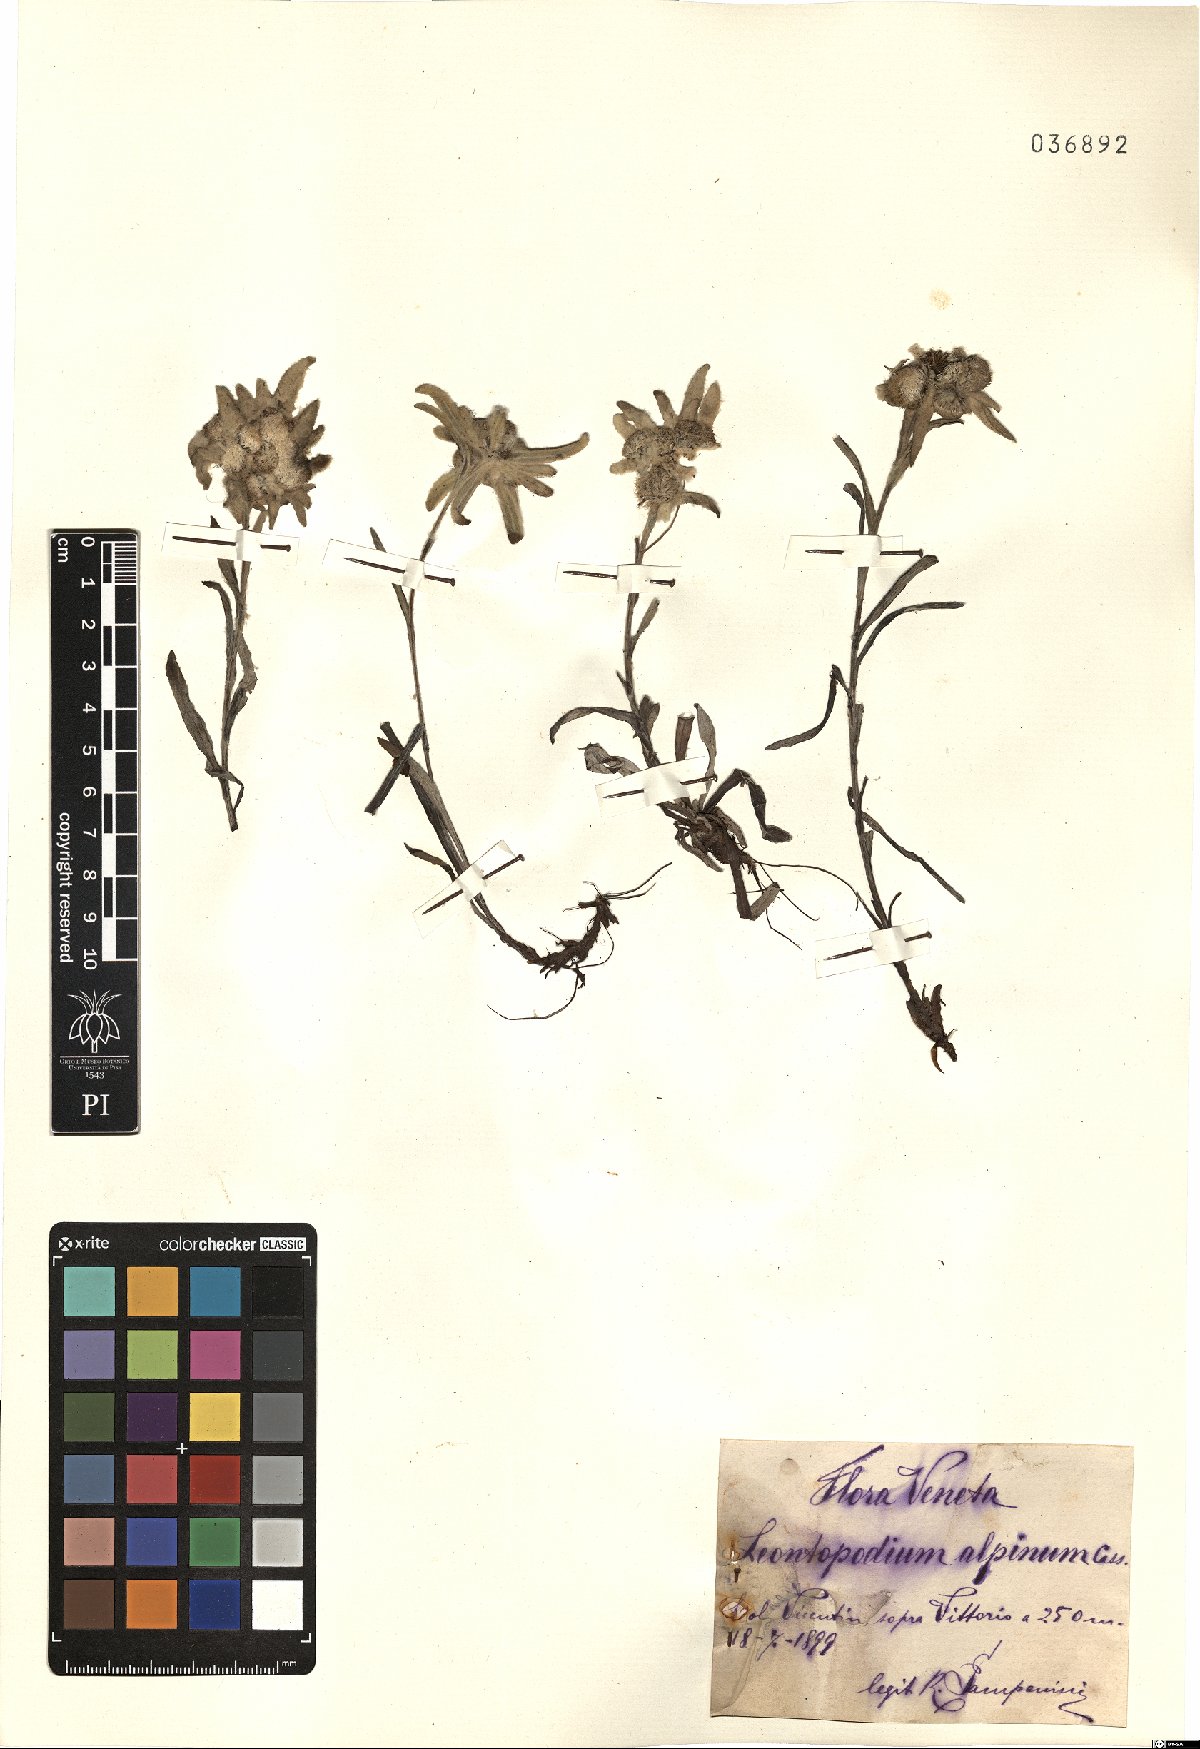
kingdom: Plantae
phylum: Tracheophyta
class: Magnoliopsida
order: Asterales
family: Asteraceae
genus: Leontopodium
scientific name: Leontopodium nivale
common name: Edelweiss
